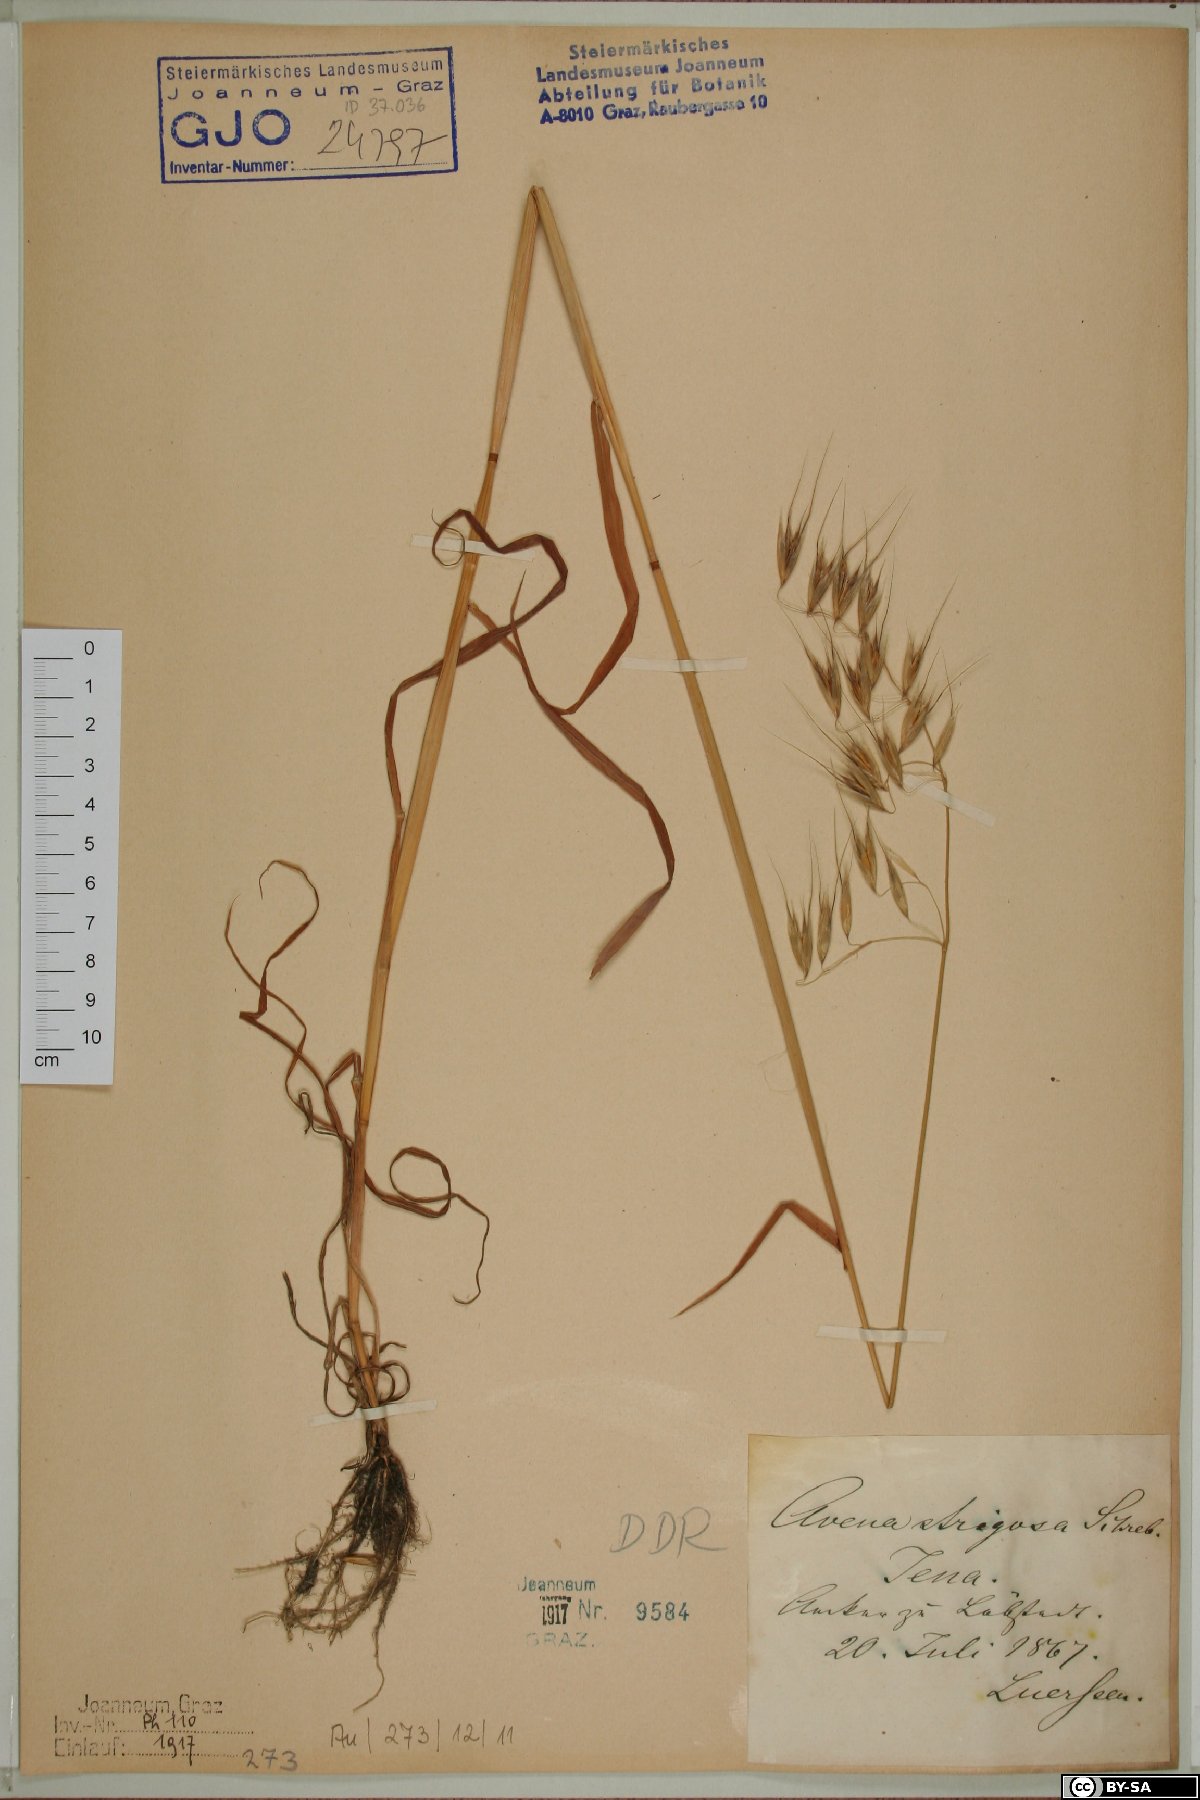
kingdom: Plantae
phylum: Tracheophyta
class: Liliopsida
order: Poales
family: Poaceae
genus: Avena
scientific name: Avena strigosa
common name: Bristle oat
